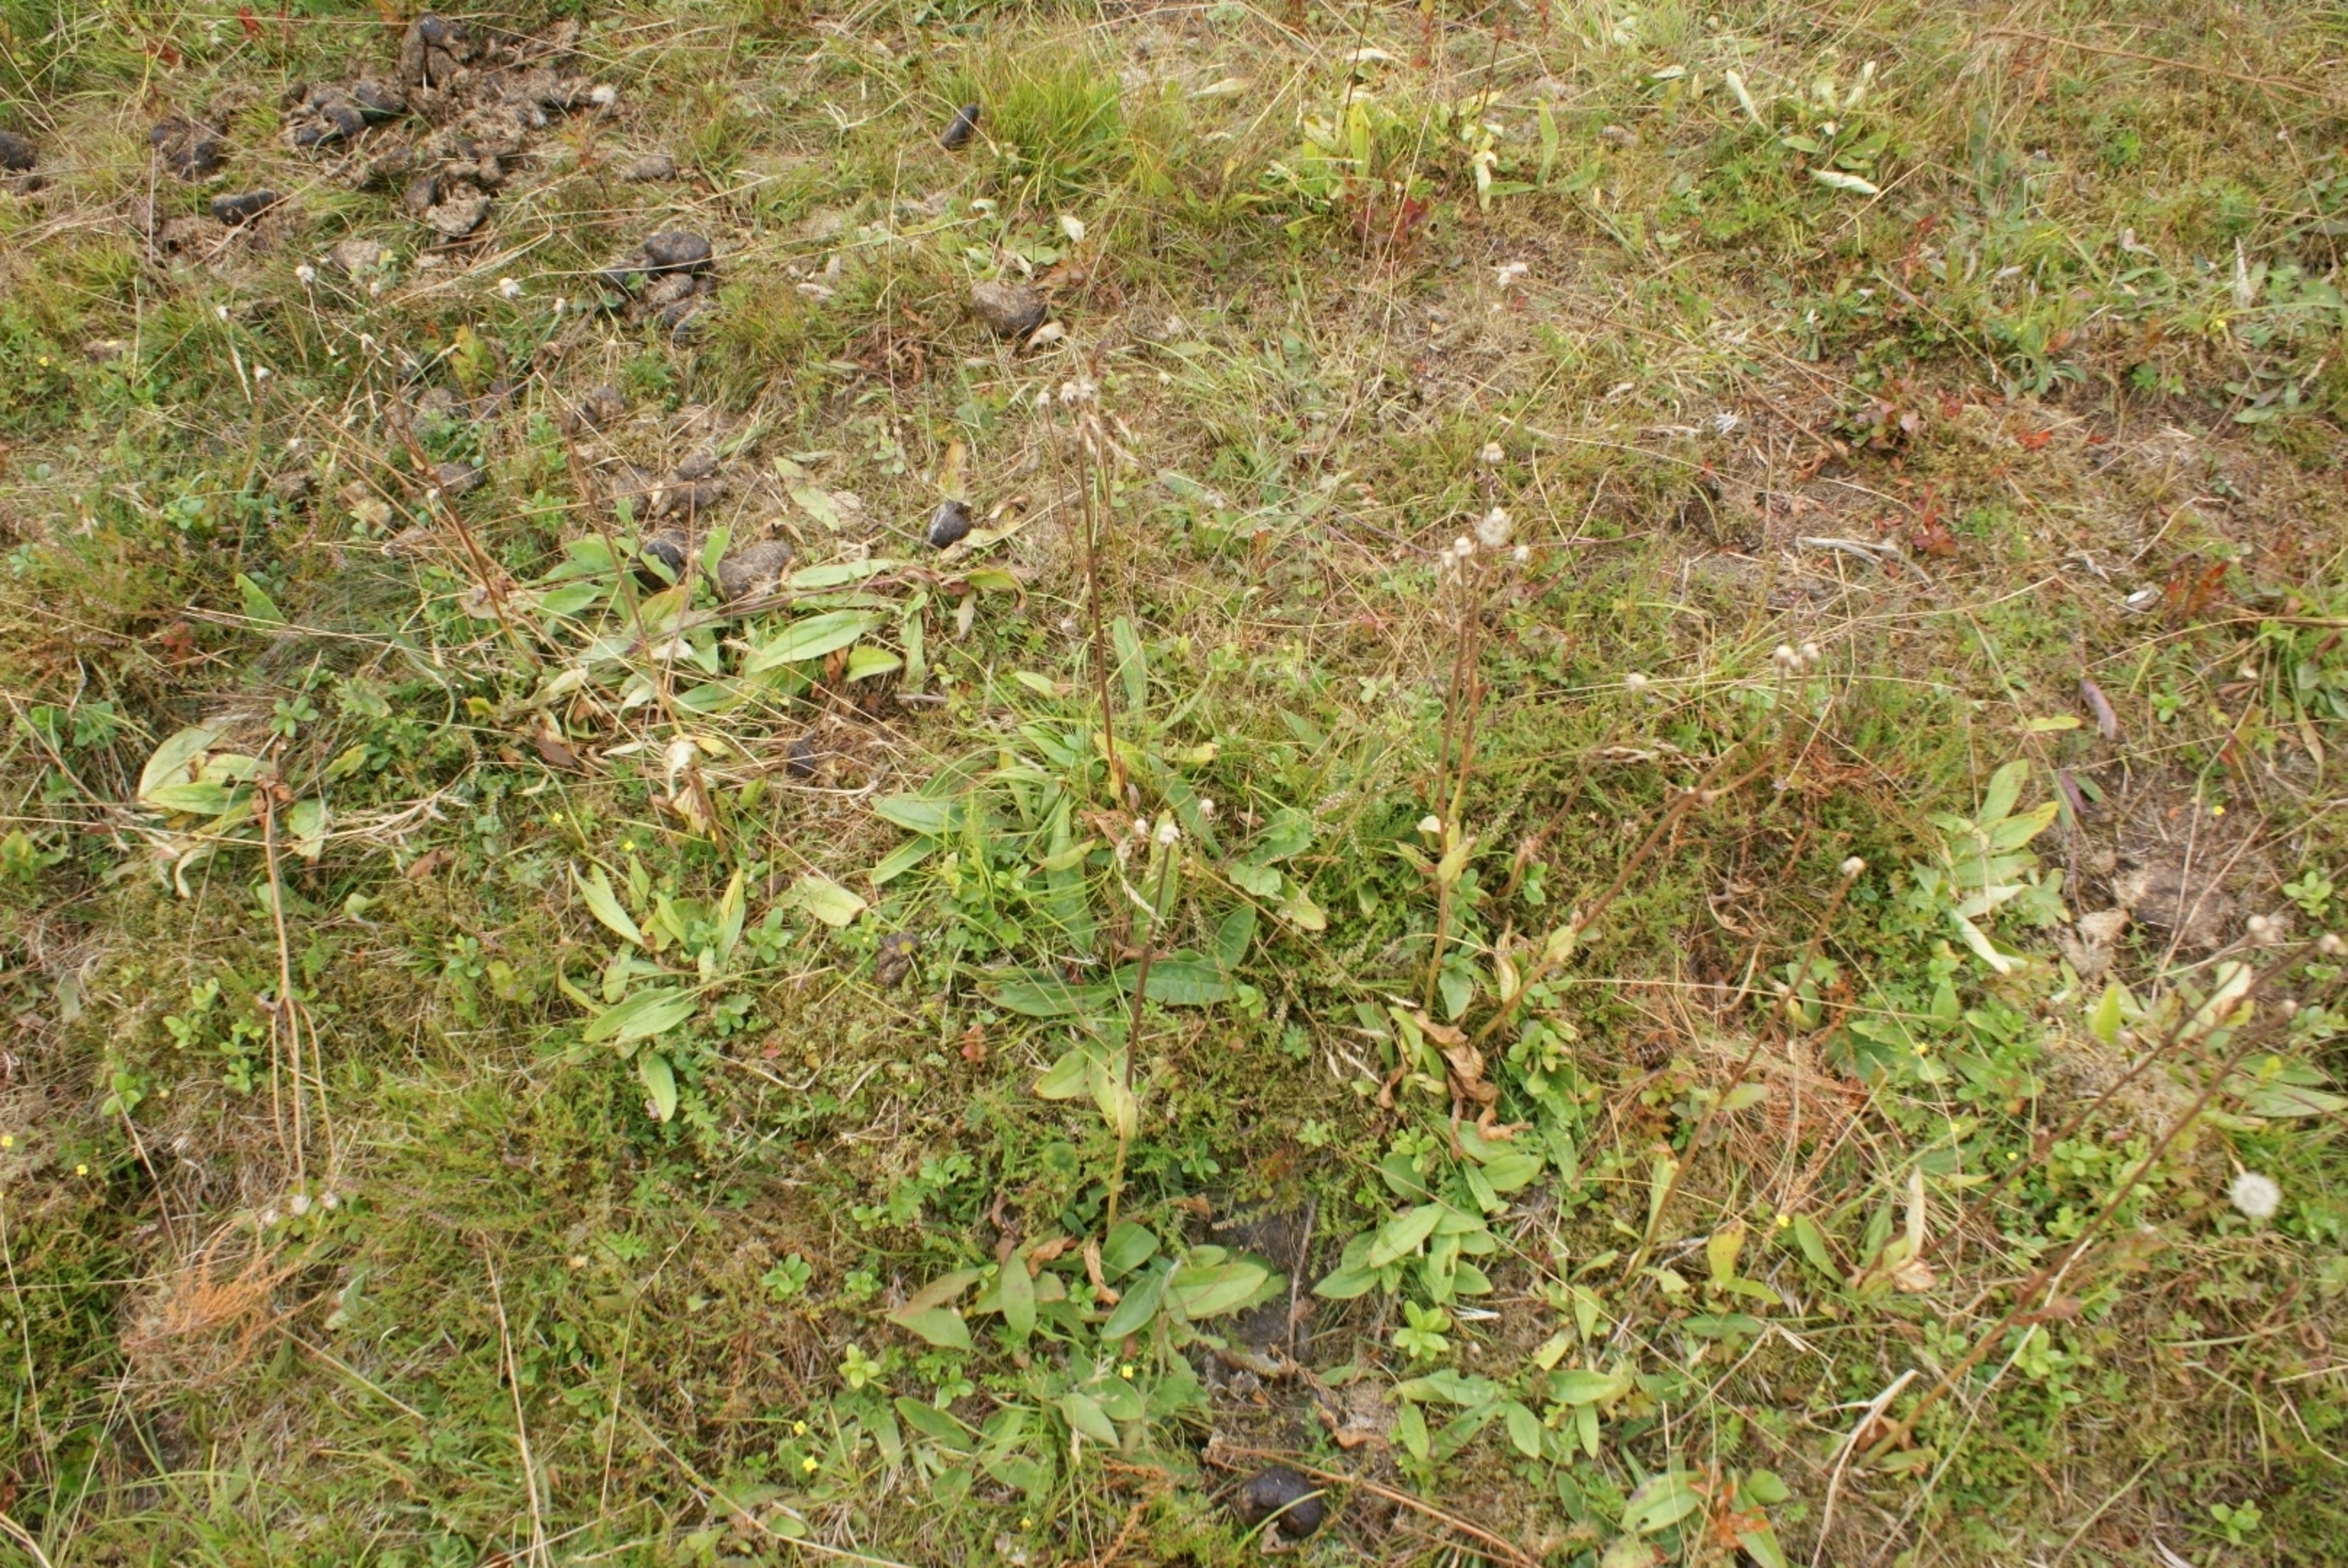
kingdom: Plantae
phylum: Tracheophyta
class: Magnoliopsida
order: Asterales
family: Asteraceae
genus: Arnica
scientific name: Arnica montana
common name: Guldblomme
